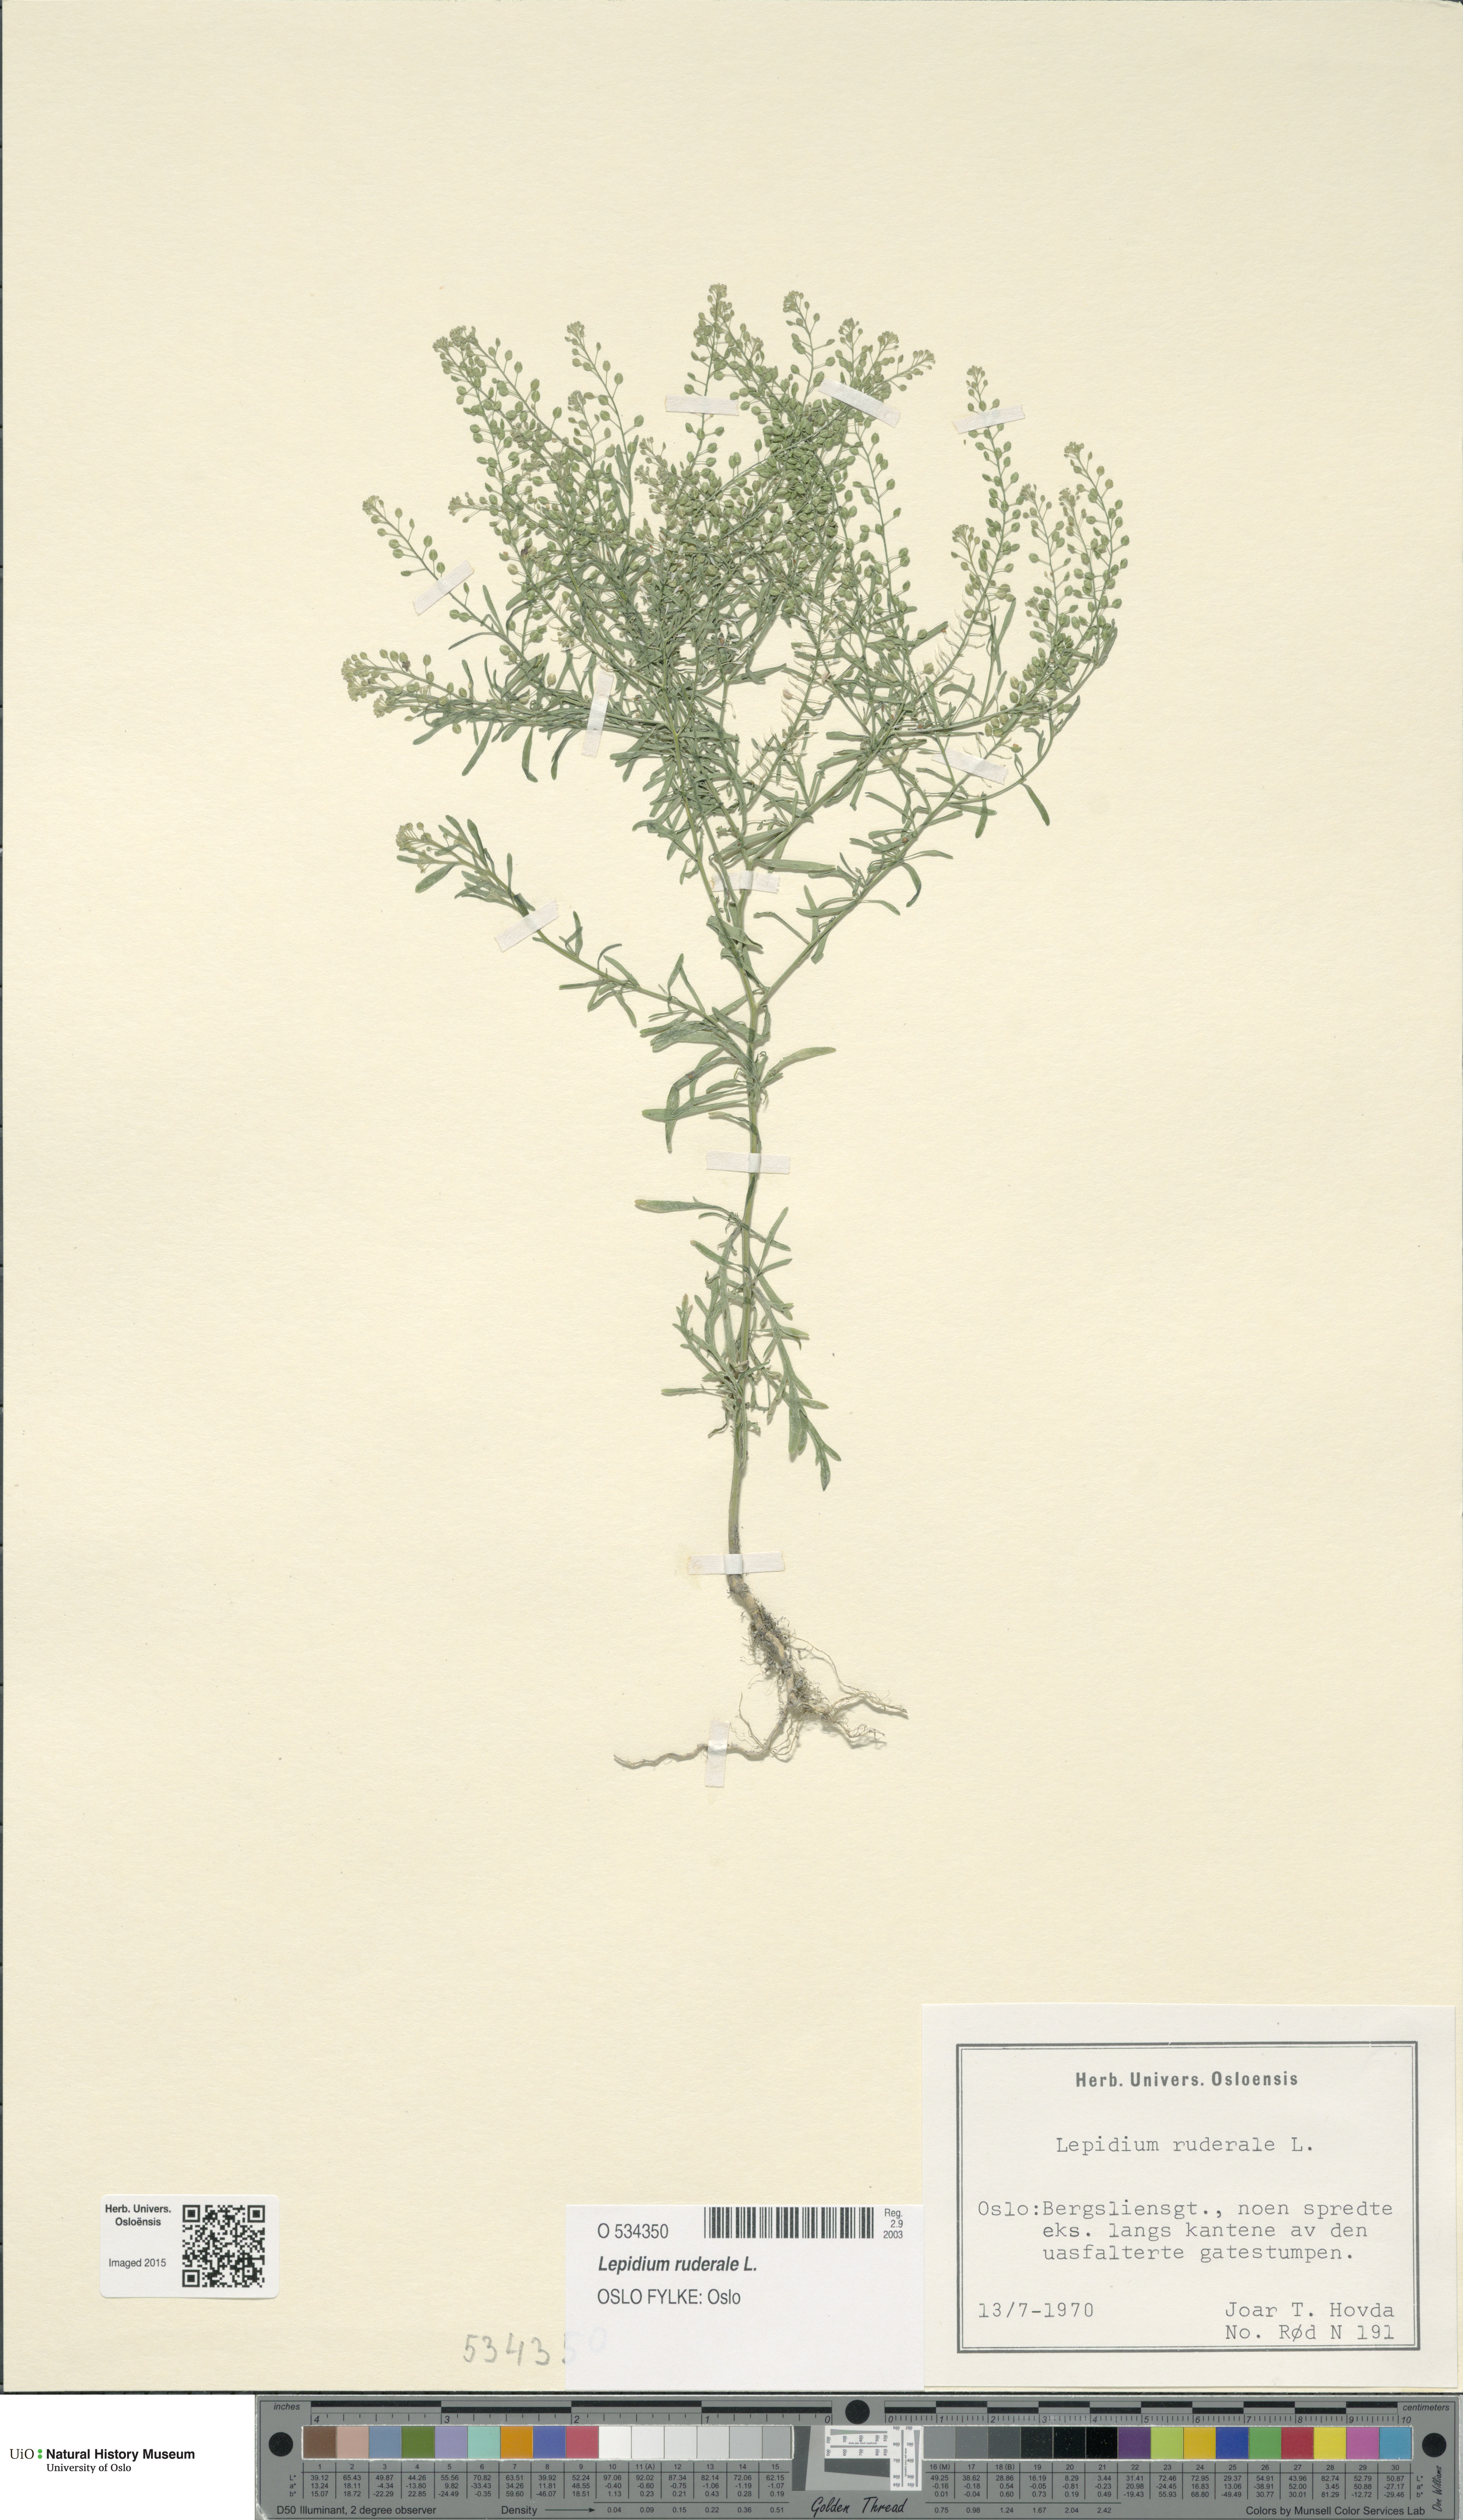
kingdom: Plantae
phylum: Tracheophyta
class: Magnoliopsida
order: Brassicales
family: Brassicaceae
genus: Lepidium
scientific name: Lepidium ruderale
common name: Narrow-leaved pepperwort
